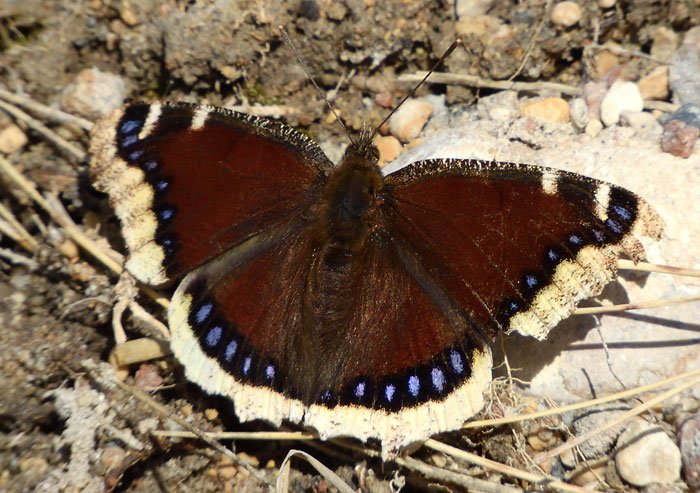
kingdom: Animalia
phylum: Arthropoda
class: Insecta
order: Lepidoptera
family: Nymphalidae
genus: Nymphalis
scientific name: Nymphalis antiopa
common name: Mourning Cloak
